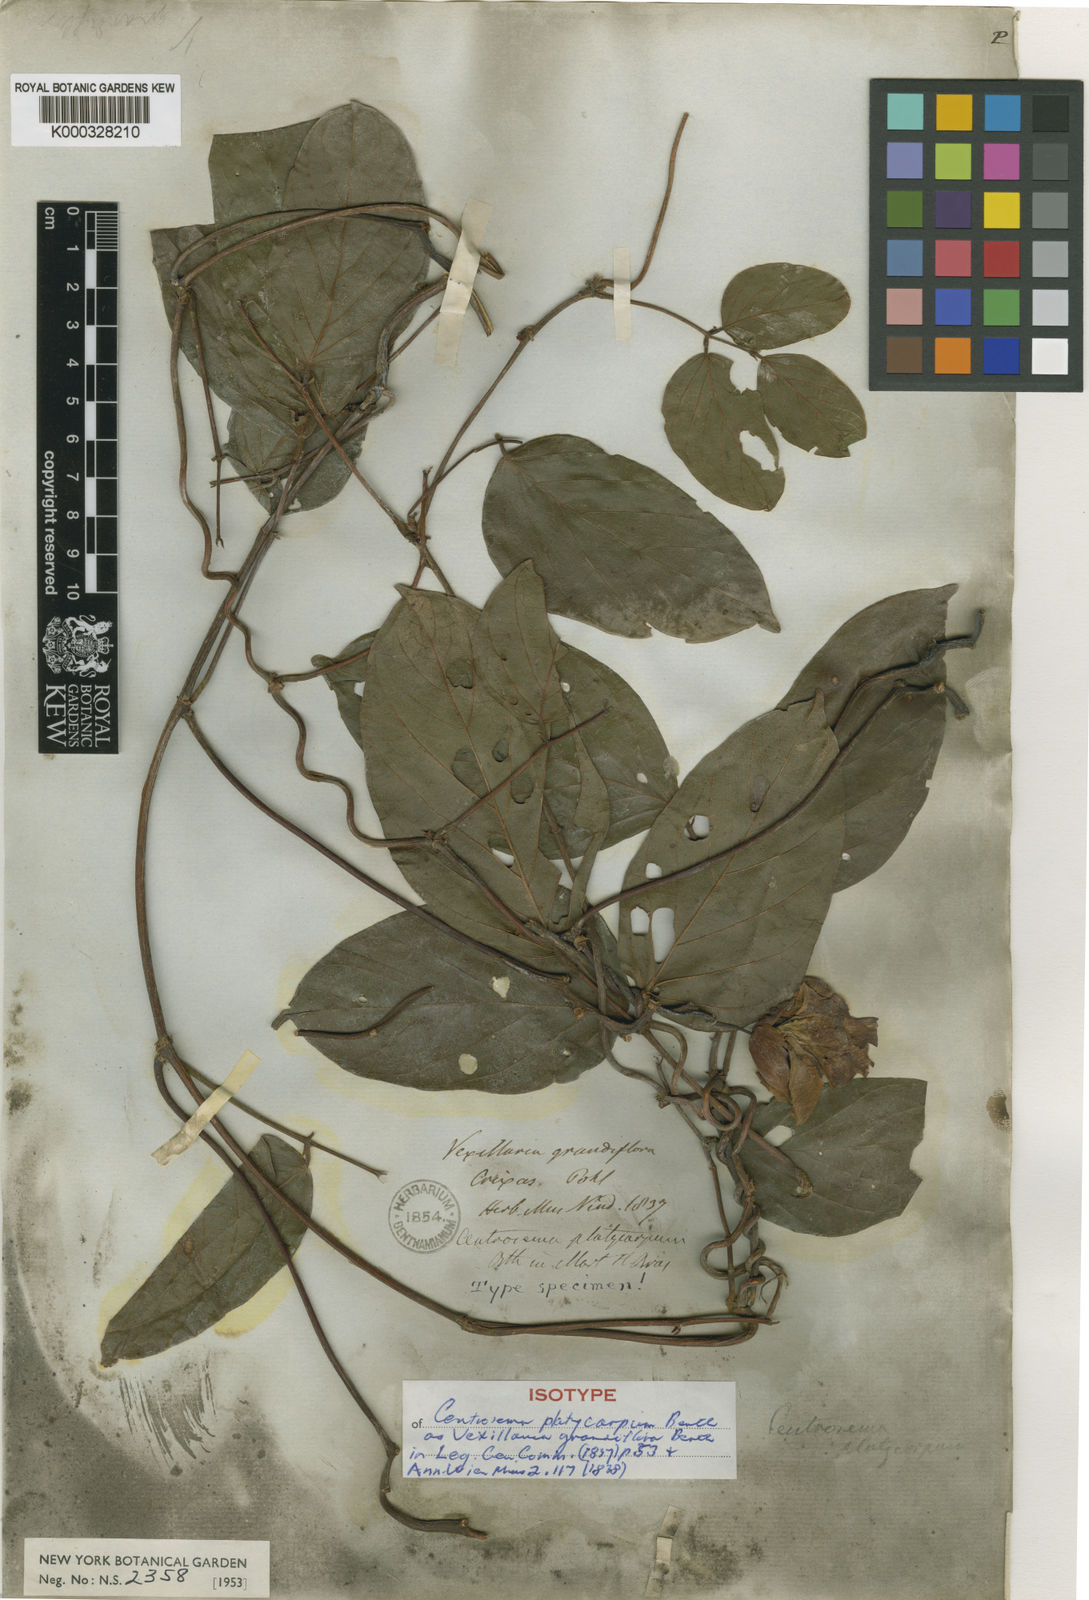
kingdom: Plantae
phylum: Tracheophyta
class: Magnoliopsida
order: Fabales
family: Fabaceae
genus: Centrosema
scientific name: Centrosema platycarpum
